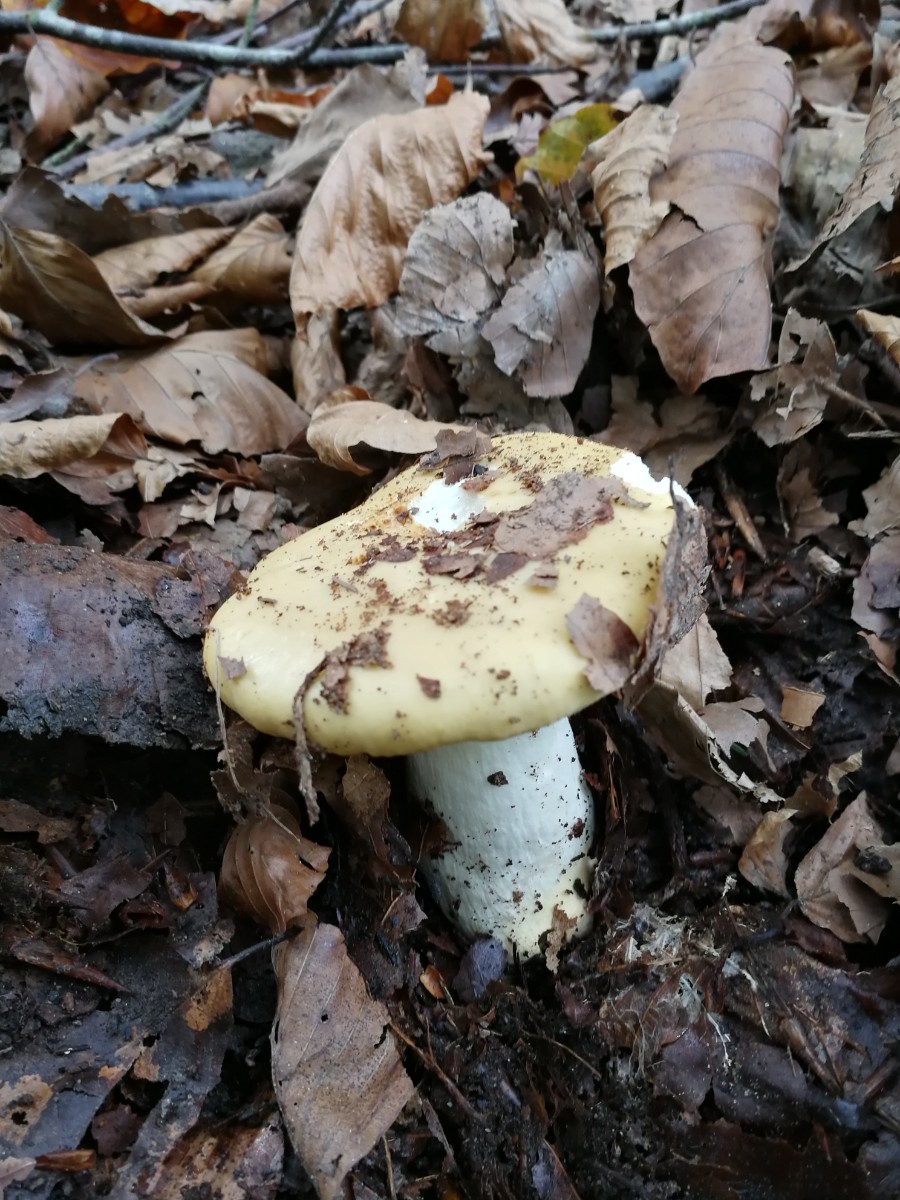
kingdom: Fungi
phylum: Basidiomycota
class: Agaricomycetes
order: Russulales
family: Russulaceae
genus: Russula
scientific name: Russula ochroleuca
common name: okkergul skørhat
